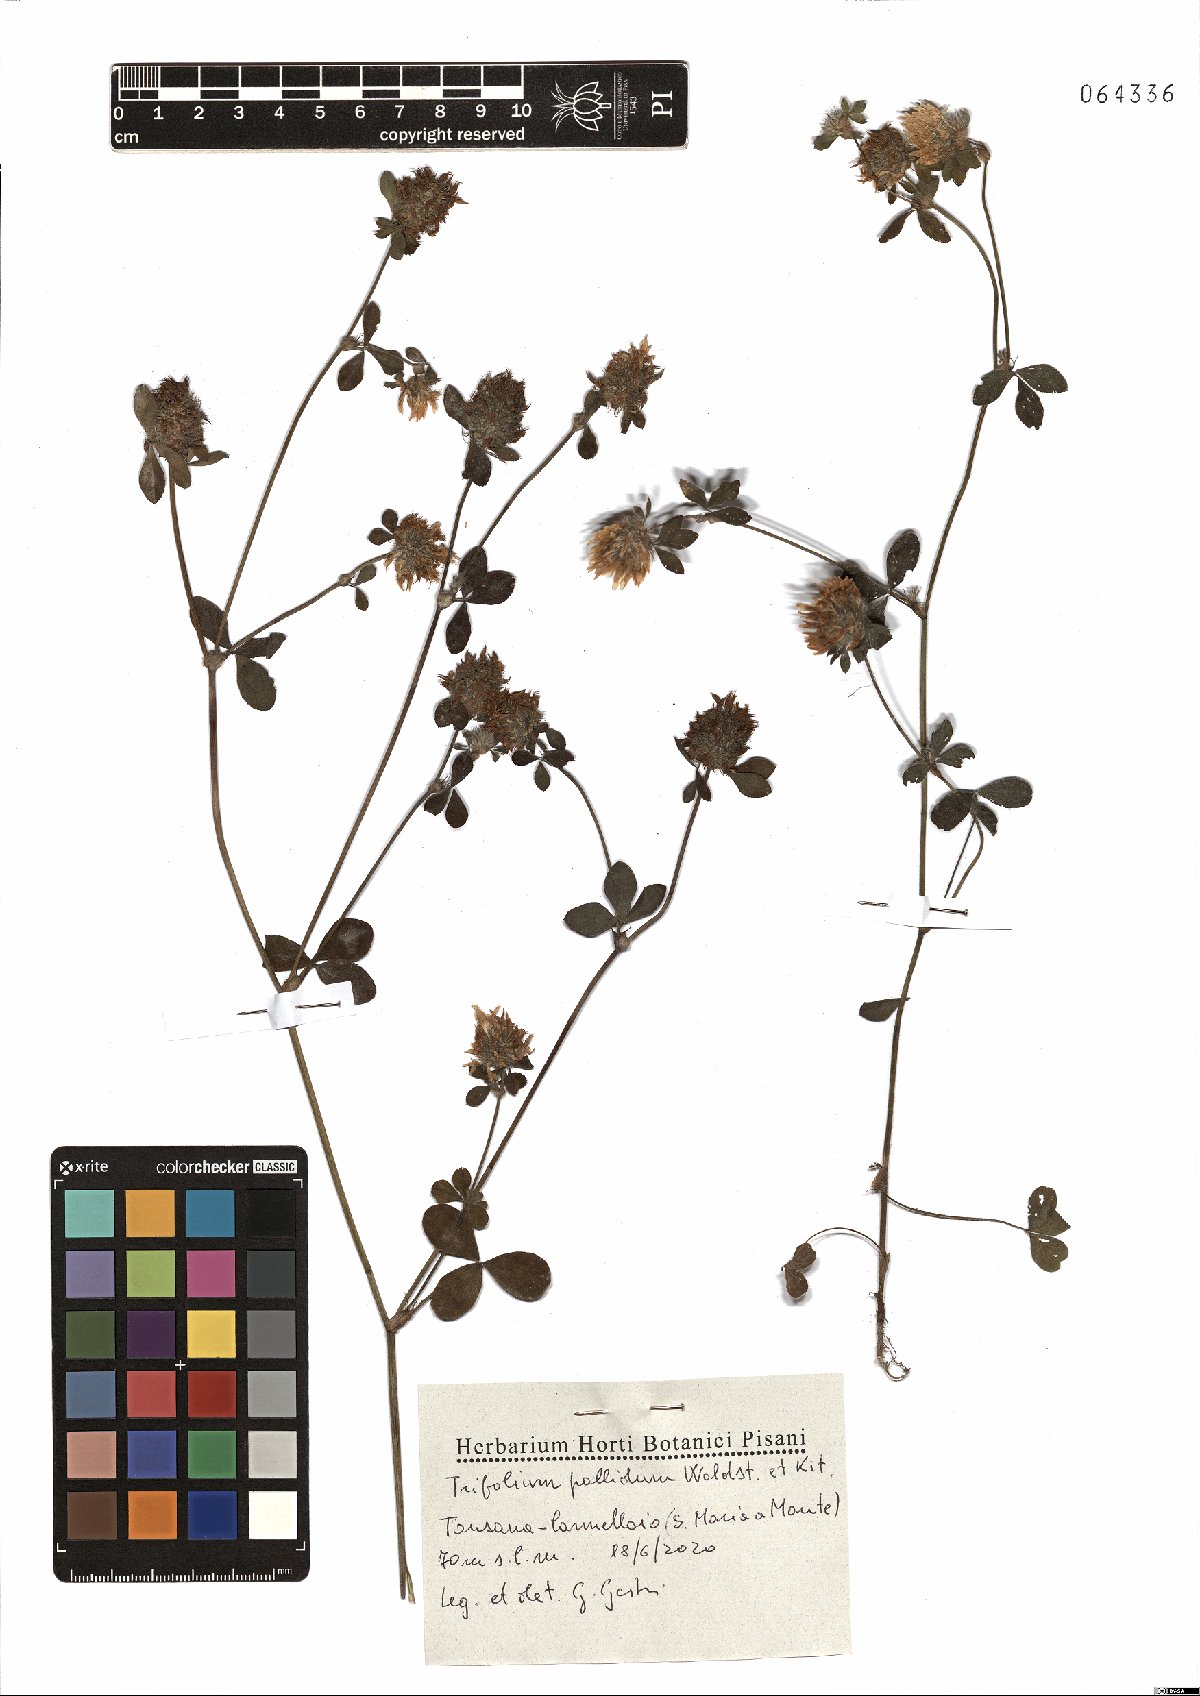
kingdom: Plantae
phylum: Tracheophyta
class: Magnoliopsida
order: Fabales
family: Fabaceae
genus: Trifolium
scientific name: Trifolium pallidum
